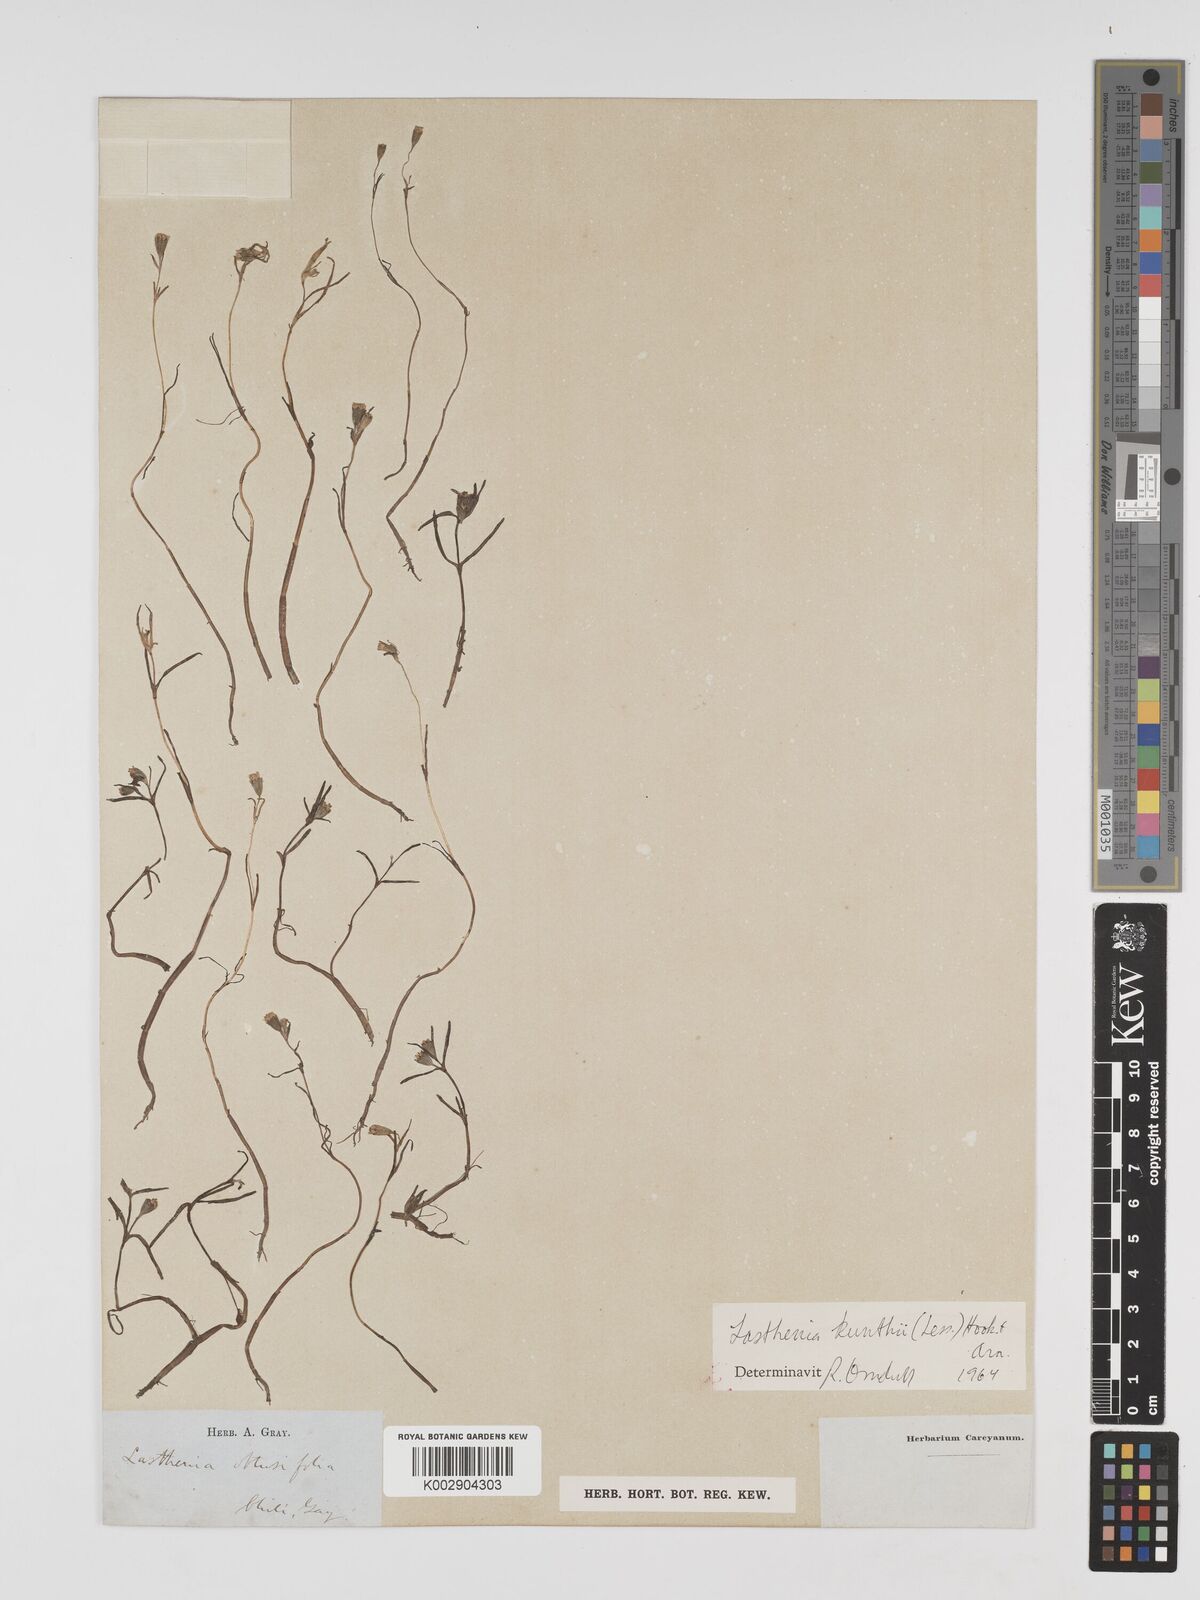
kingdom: Plantae
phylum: Tracheophyta
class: Magnoliopsida
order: Asterales
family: Asteraceae
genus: Lasthenia
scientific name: Lasthenia kunthii
